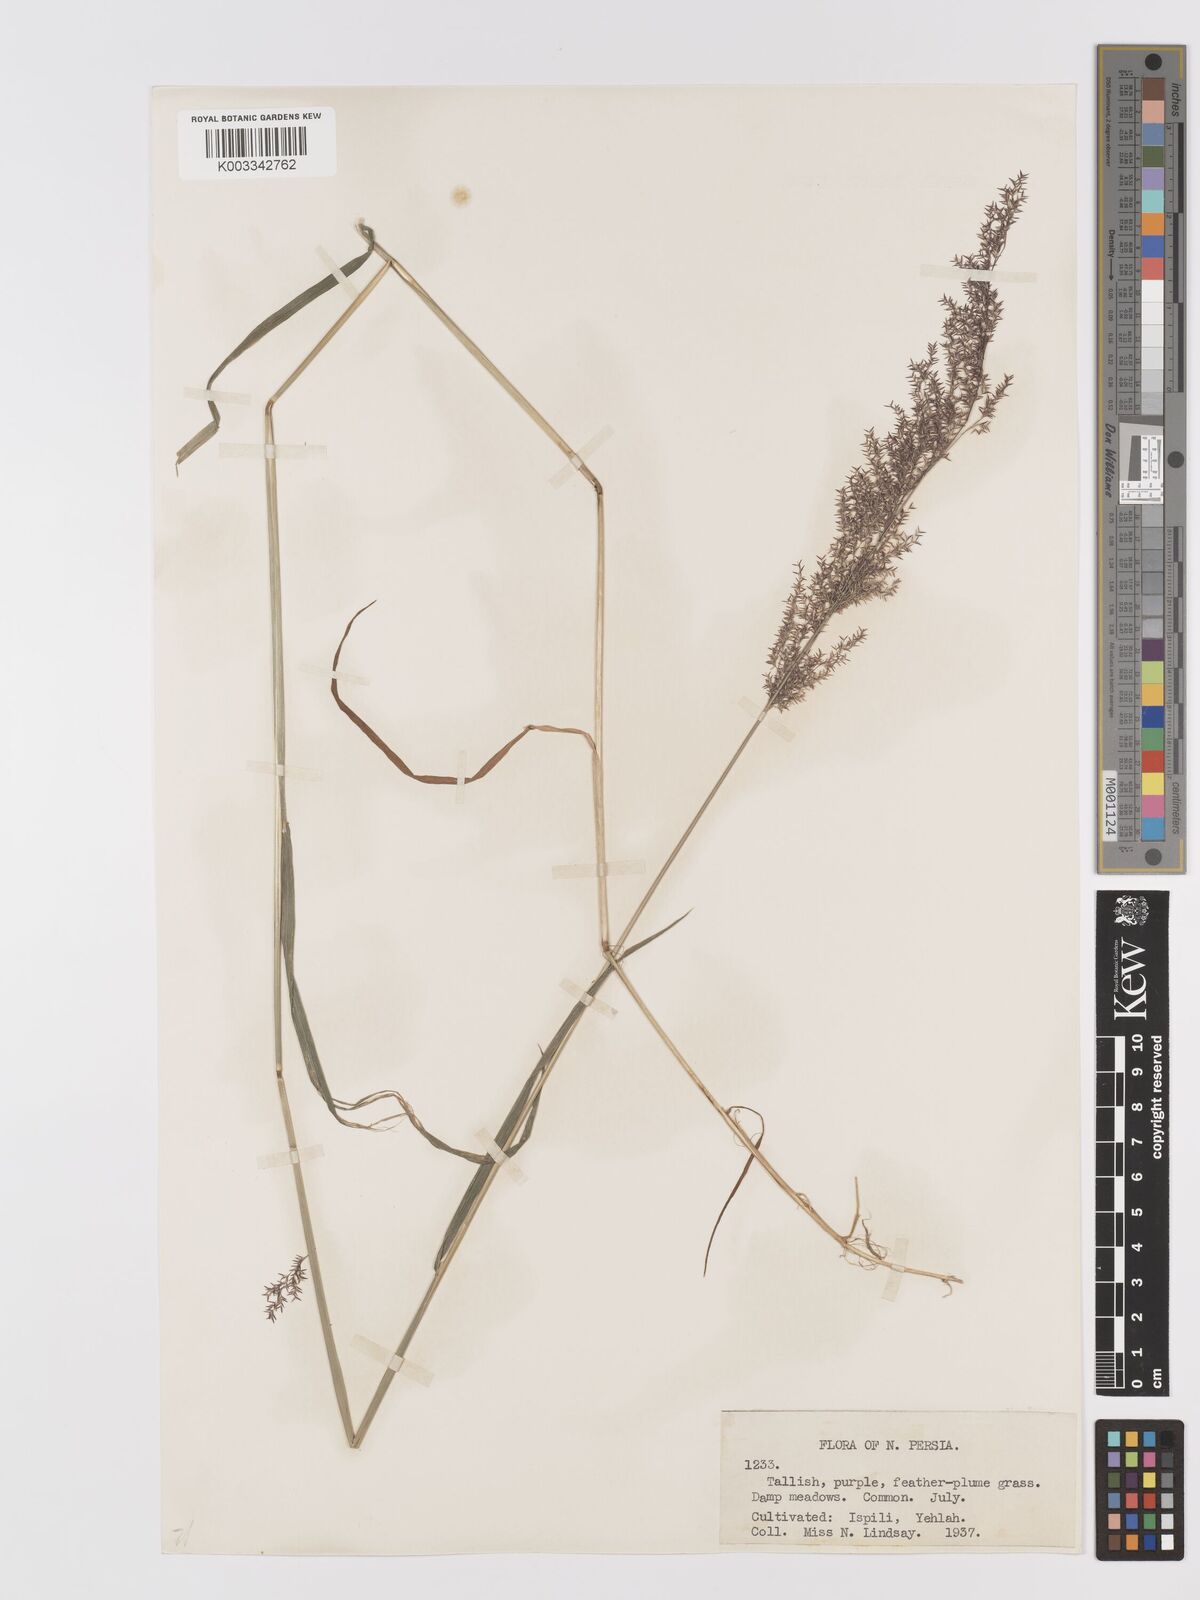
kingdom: Plantae
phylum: Tracheophyta
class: Liliopsida
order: Poales
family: Poaceae
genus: Agrostis
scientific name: Agrostis stolonifera
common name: Creeping bentgrass
